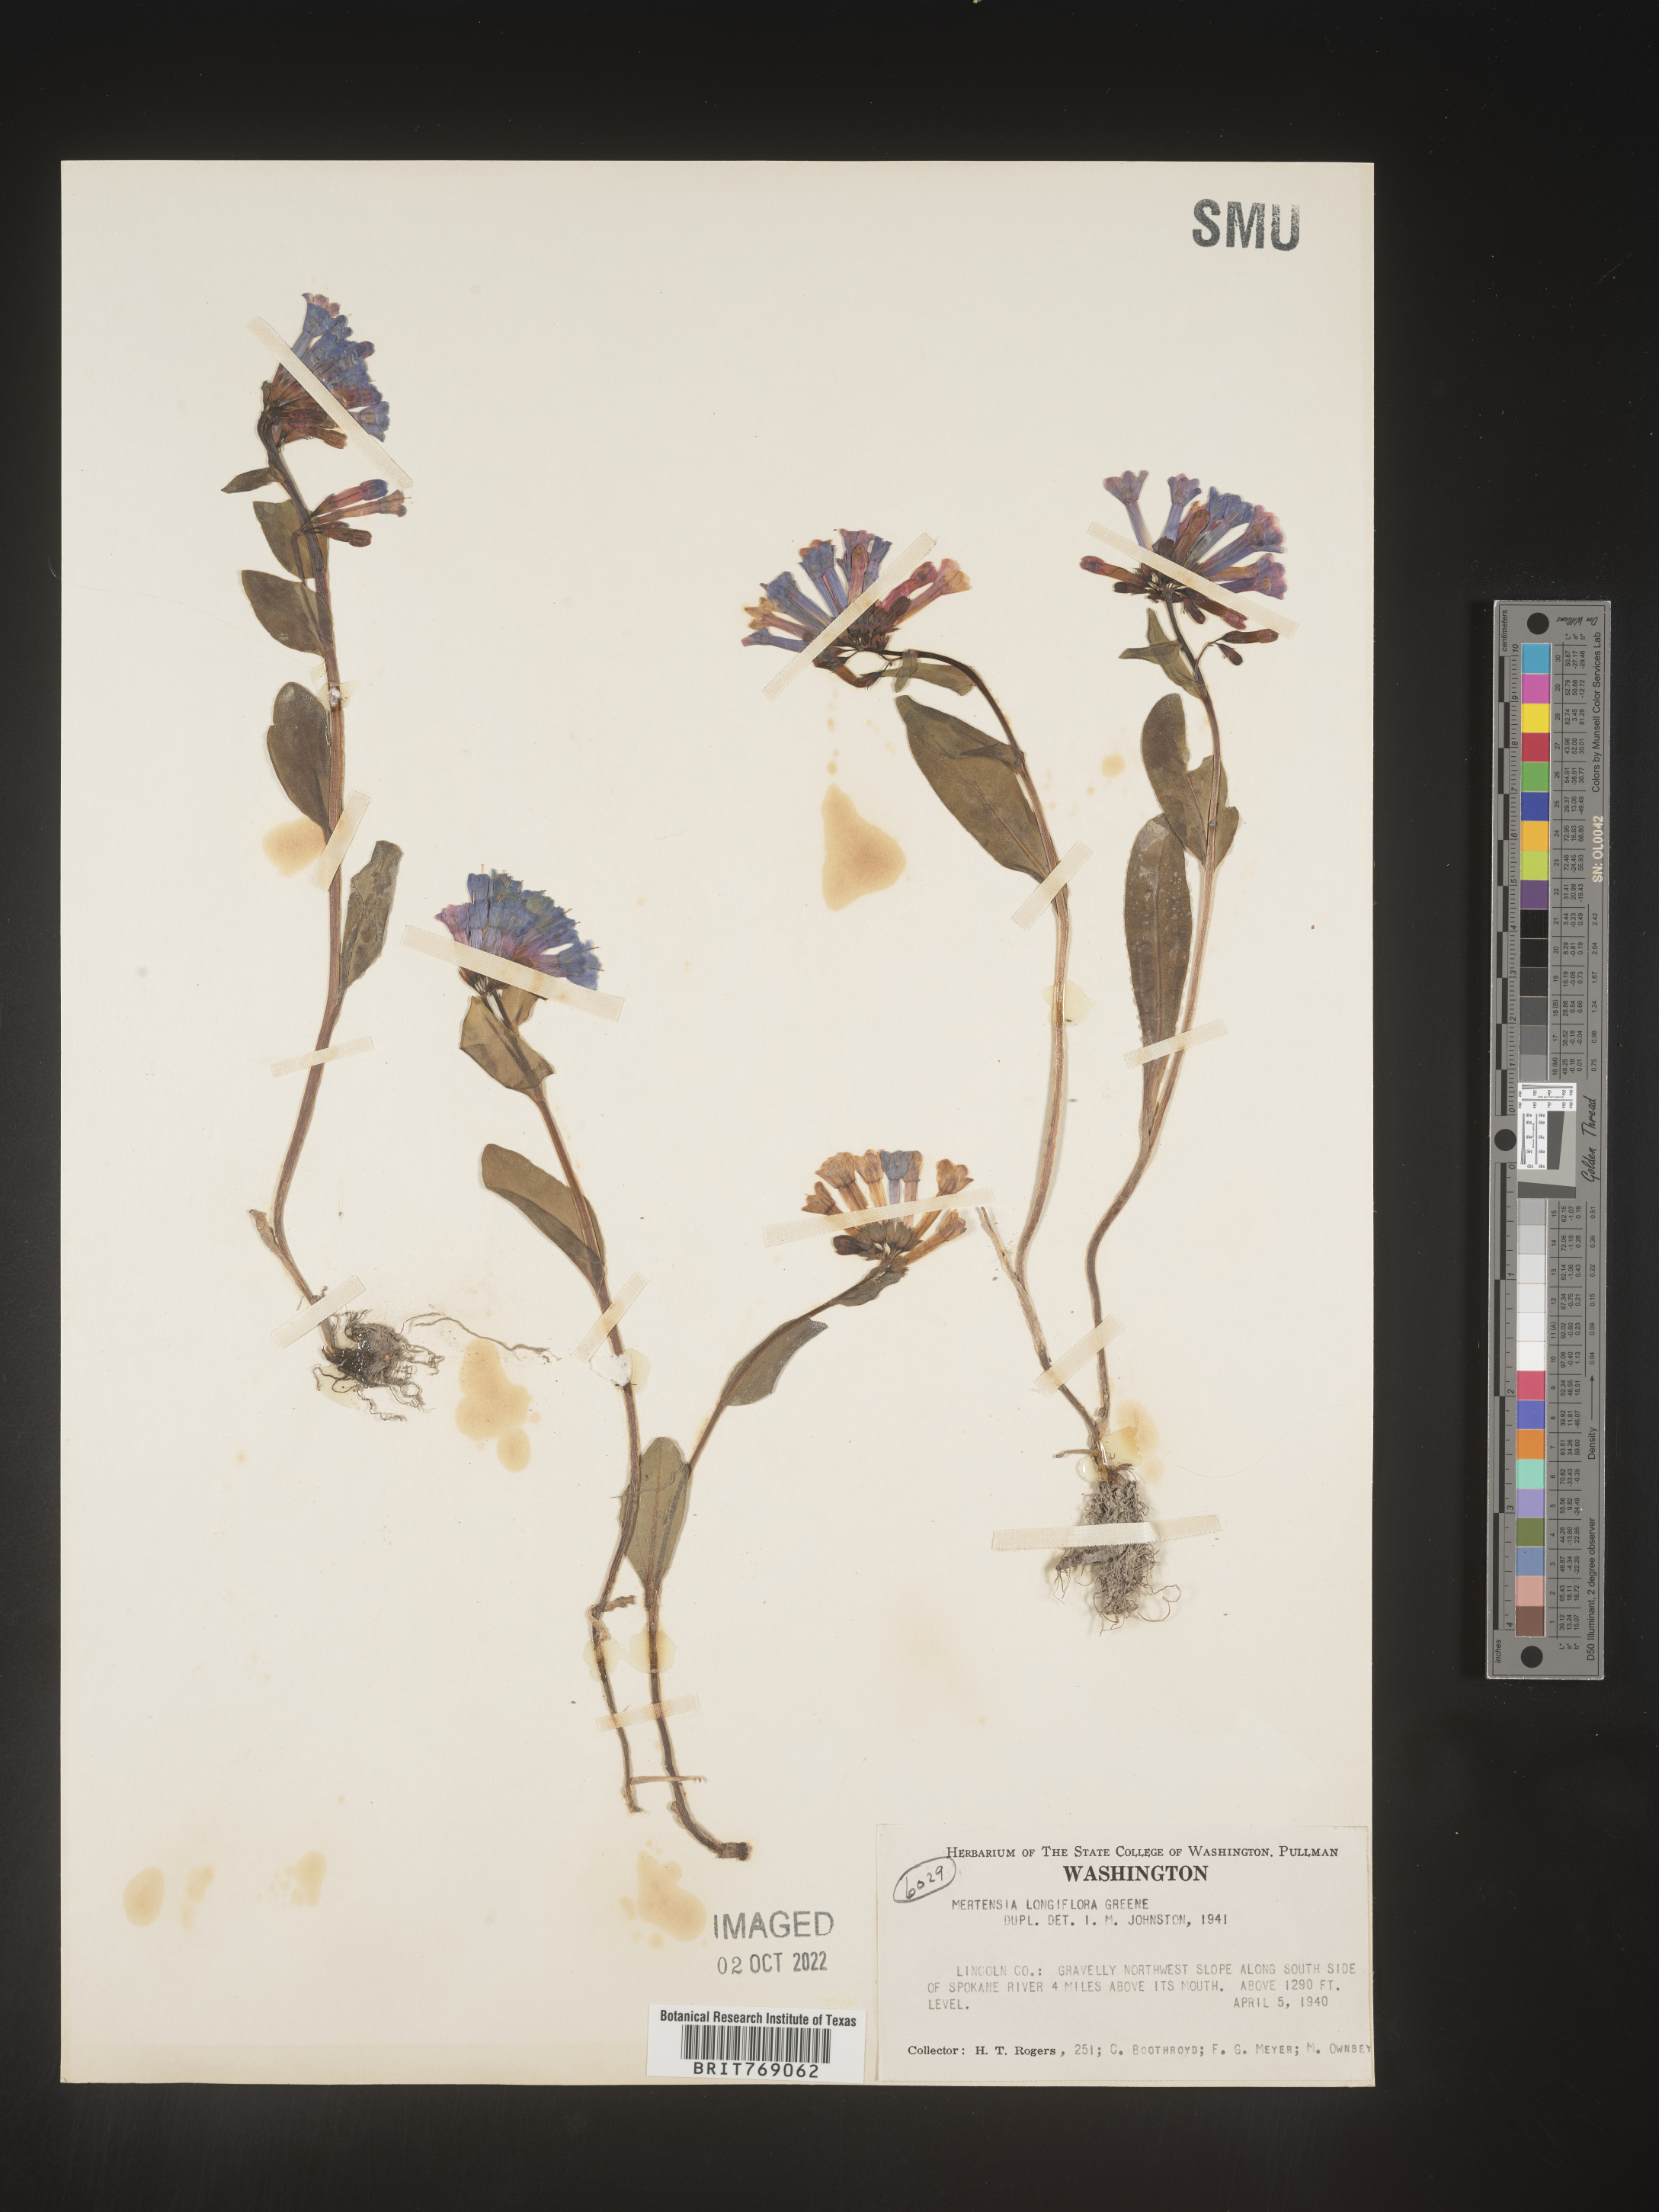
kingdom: Plantae
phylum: Tracheophyta
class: Magnoliopsida
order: Boraginales
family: Boraginaceae
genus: Mertensia
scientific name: Mertensia
